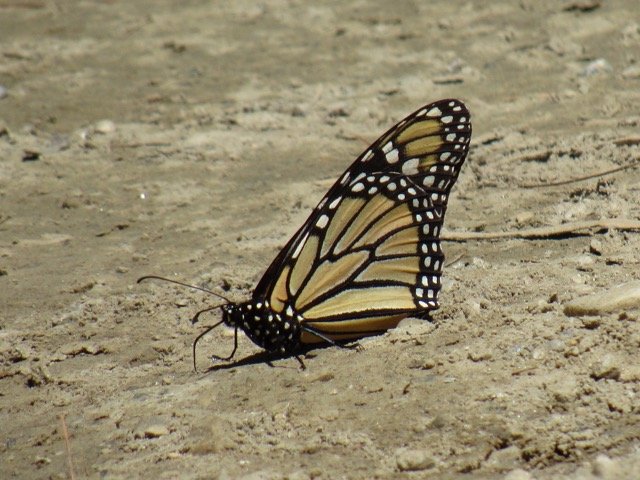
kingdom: Animalia
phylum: Arthropoda
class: Insecta
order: Lepidoptera
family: Nymphalidae
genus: Danaus
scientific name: Danaus plexippus
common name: Monarch
